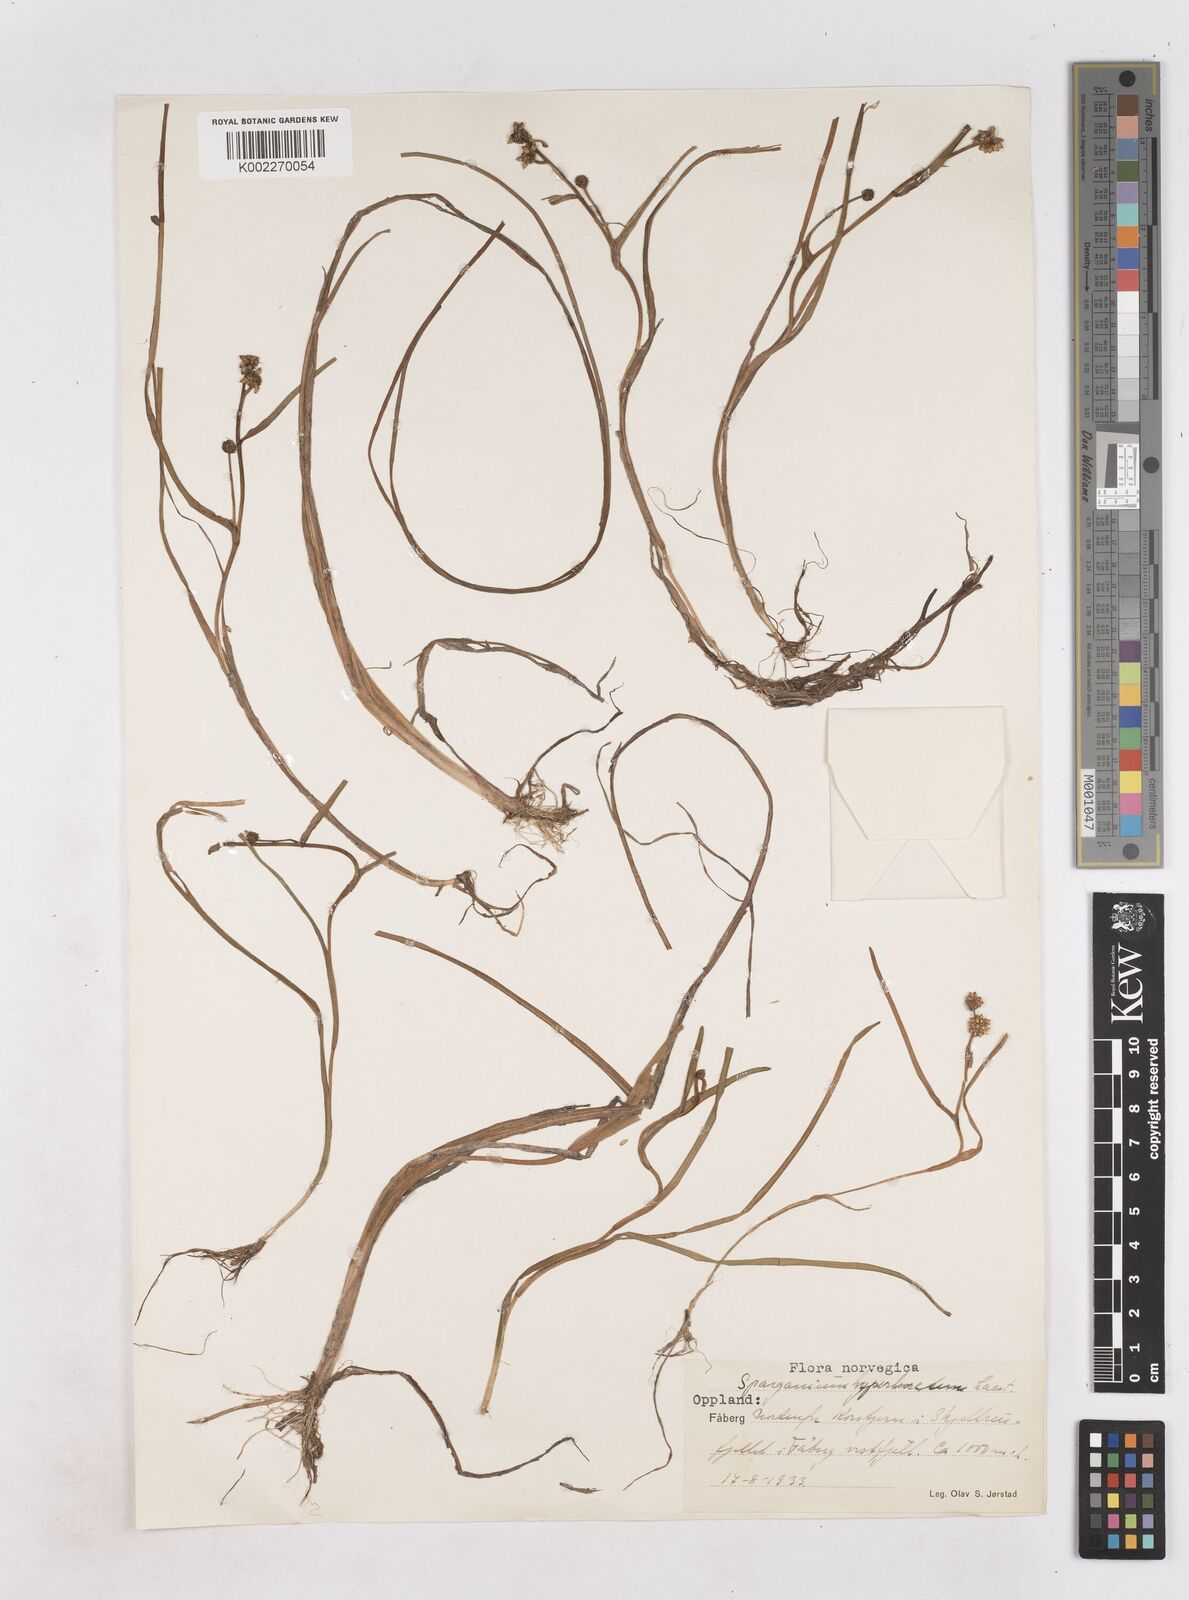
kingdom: Plantae
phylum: Tracheophyta
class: Liliopsida
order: Poales
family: Typhaceae
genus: Sparganium
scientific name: Sparganium hyperboreum
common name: Arctic burreed
